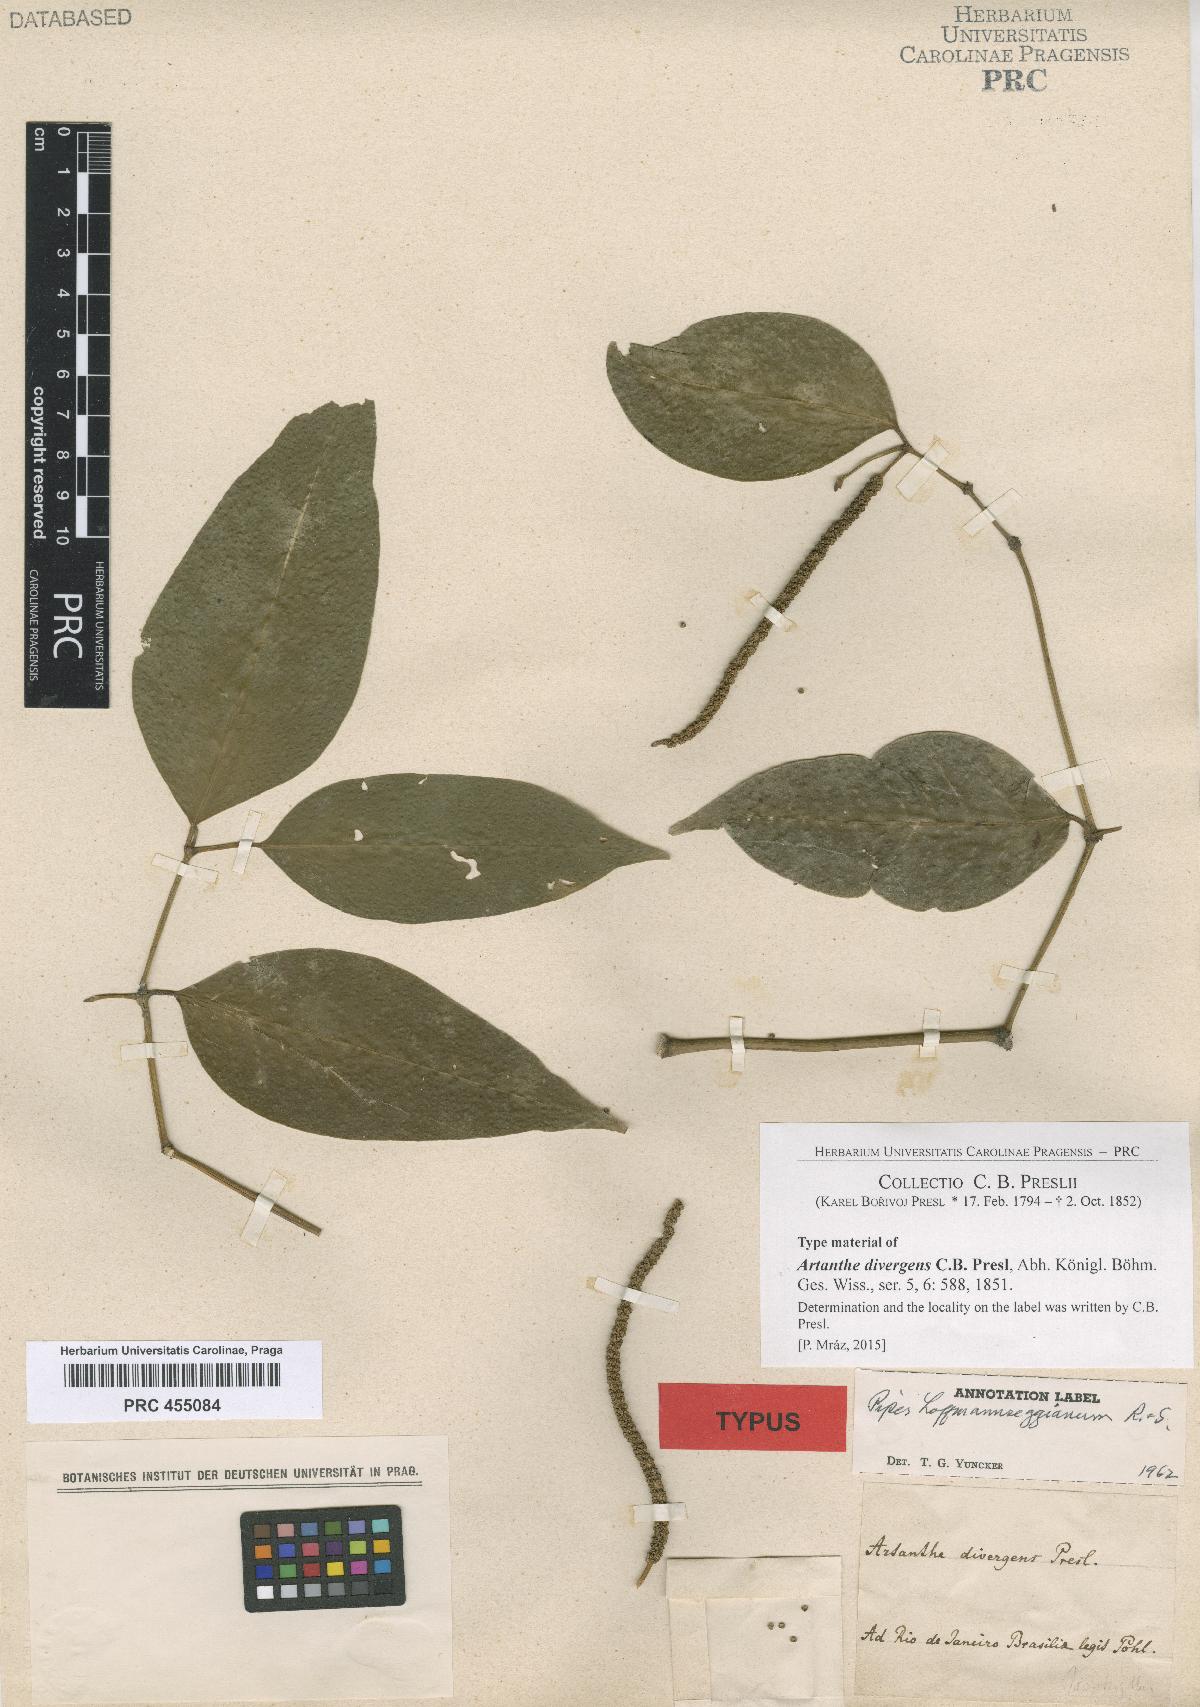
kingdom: Plantae
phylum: Tracheophyta
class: Magnoliopsida
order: Piperales
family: Piperaceae
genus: Piper
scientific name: Piper hoffmannseggianum
